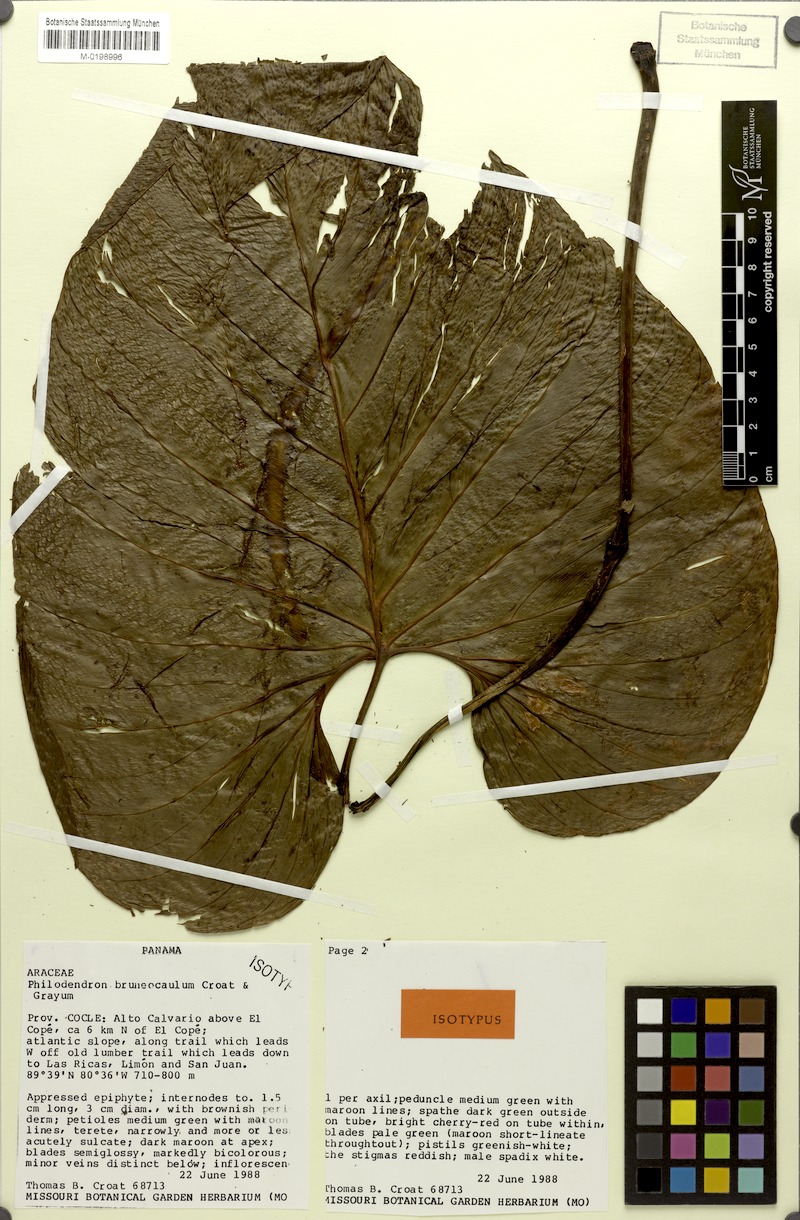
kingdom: Plantae
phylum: Tracheophyta
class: Liliopsida
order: Alismatales
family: Araceae
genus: Philodendron
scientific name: Philodendron brunneicaule
